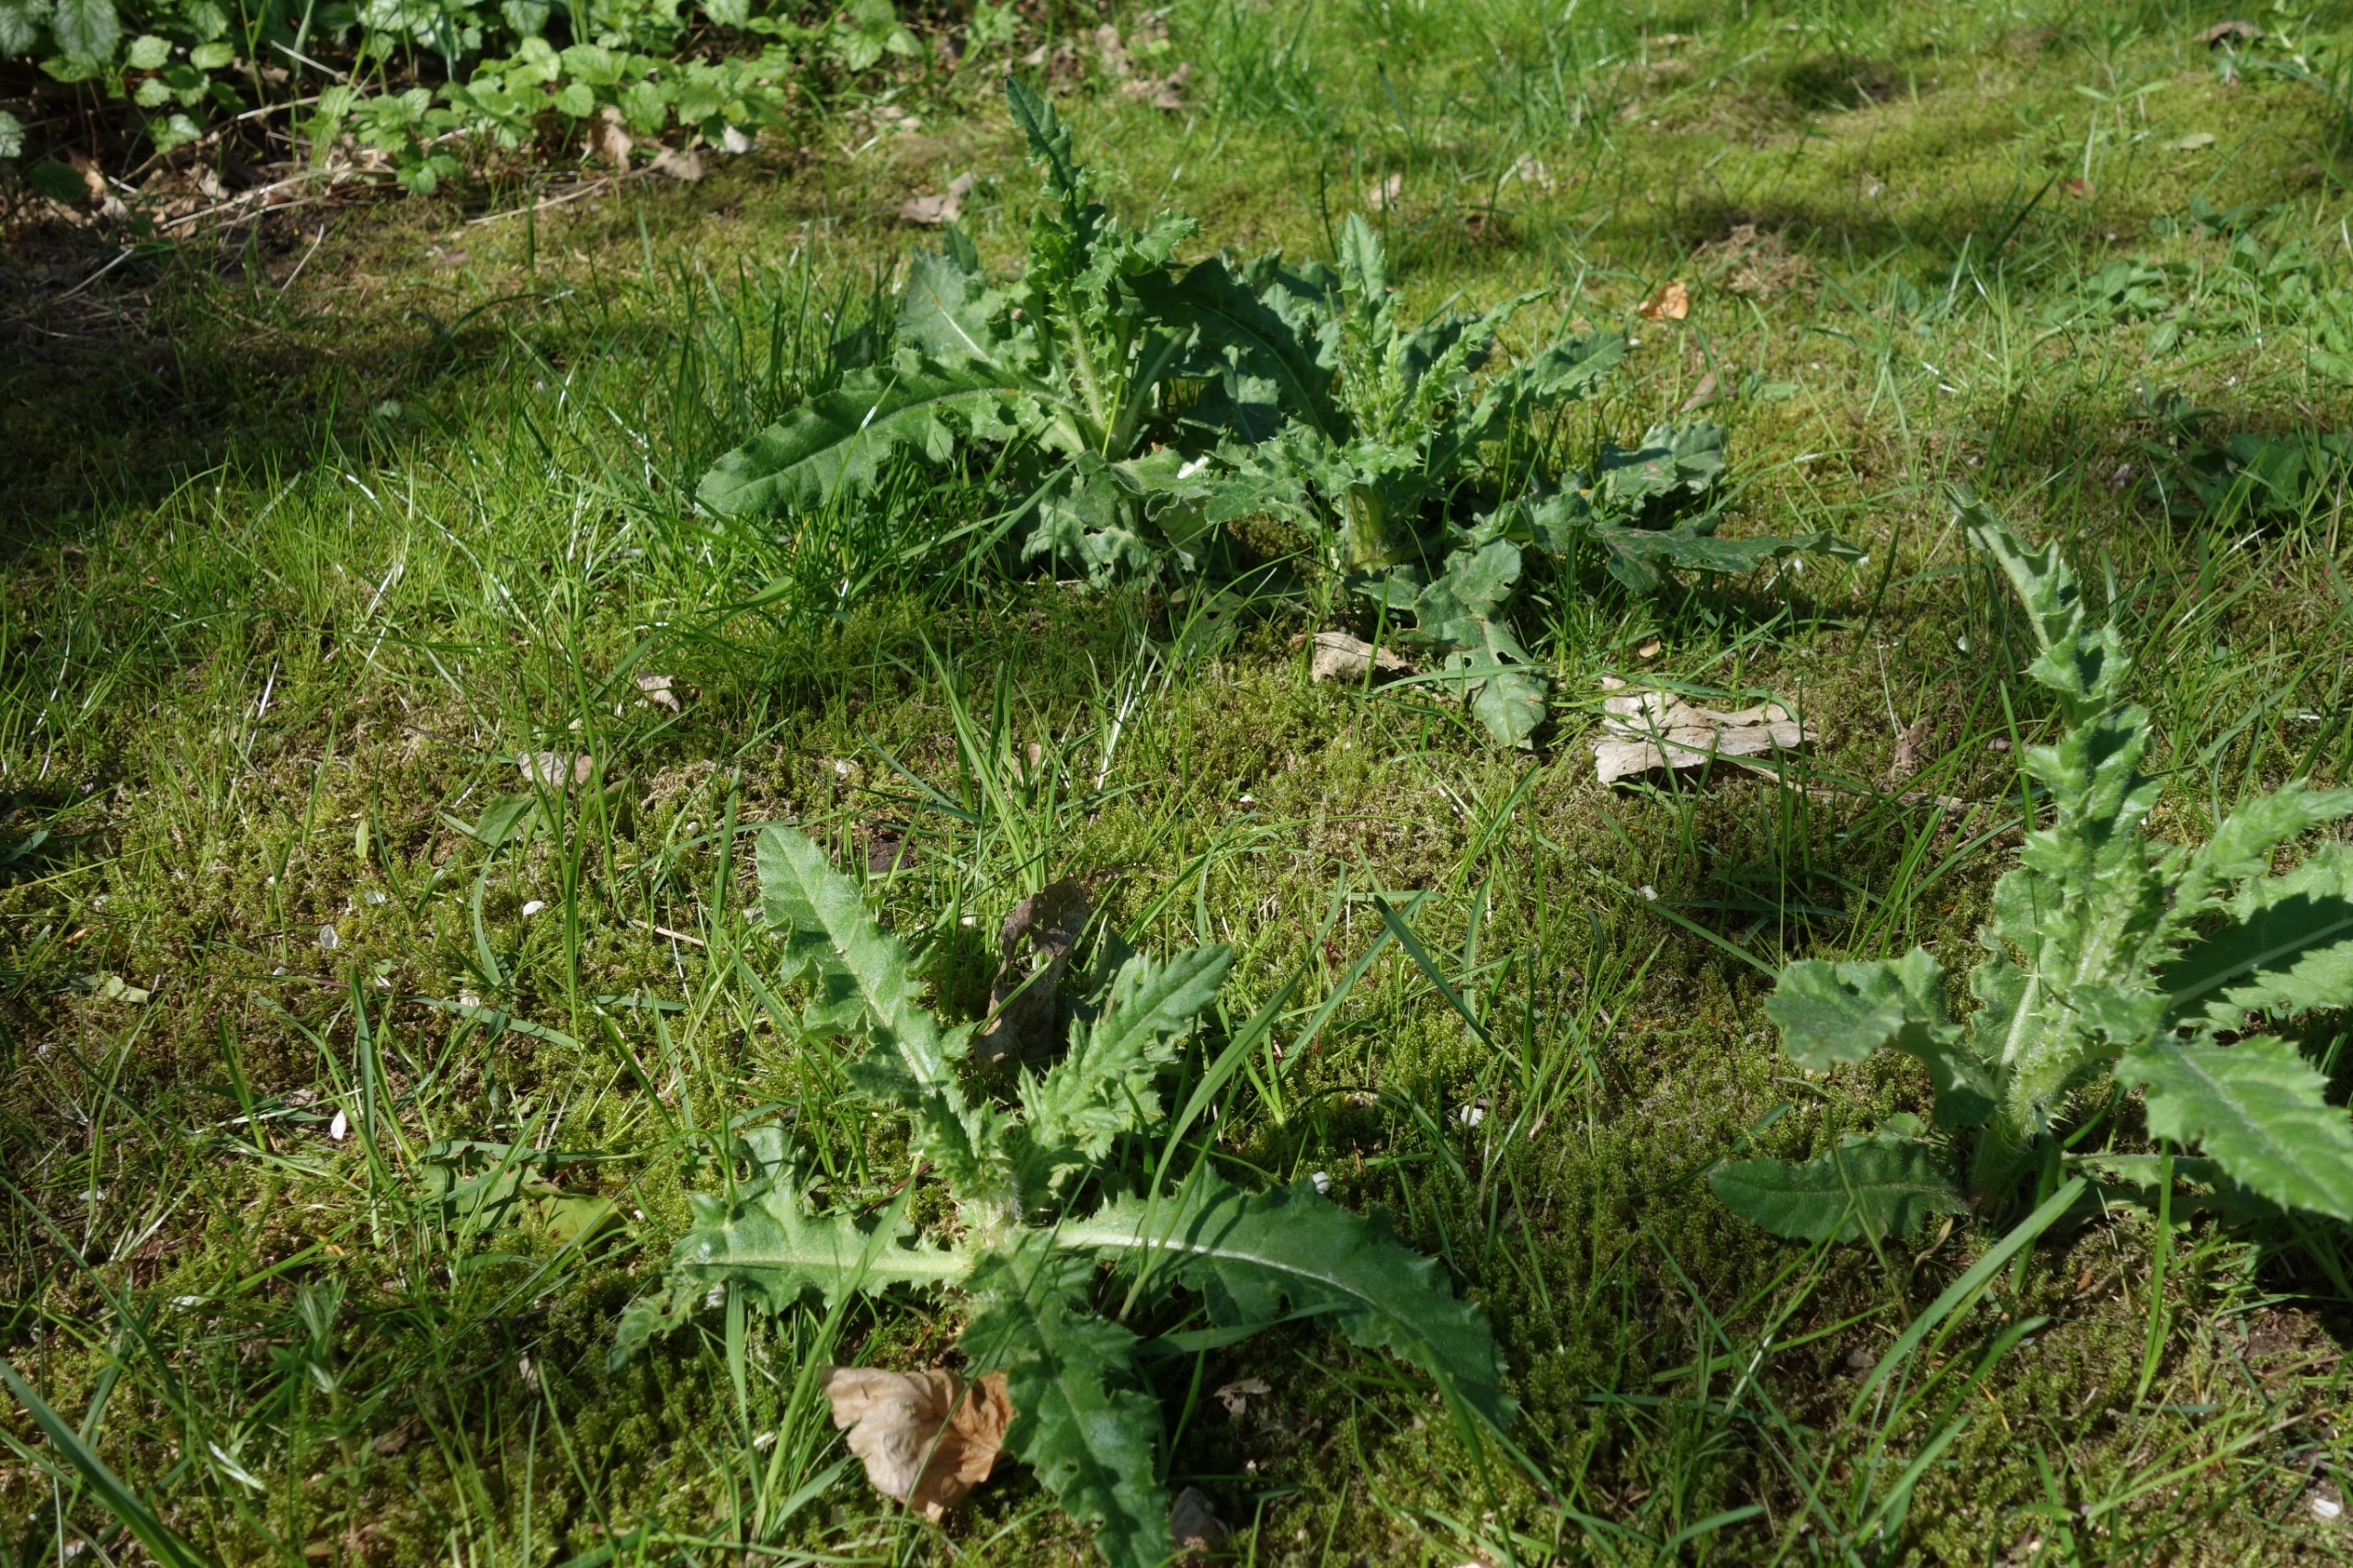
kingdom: Plantae
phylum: Tracheophyta
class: Magnoliopsida
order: Asterales
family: Asteraceae
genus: Cirsium
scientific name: Cirsium arvense
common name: Ager-tidsel
